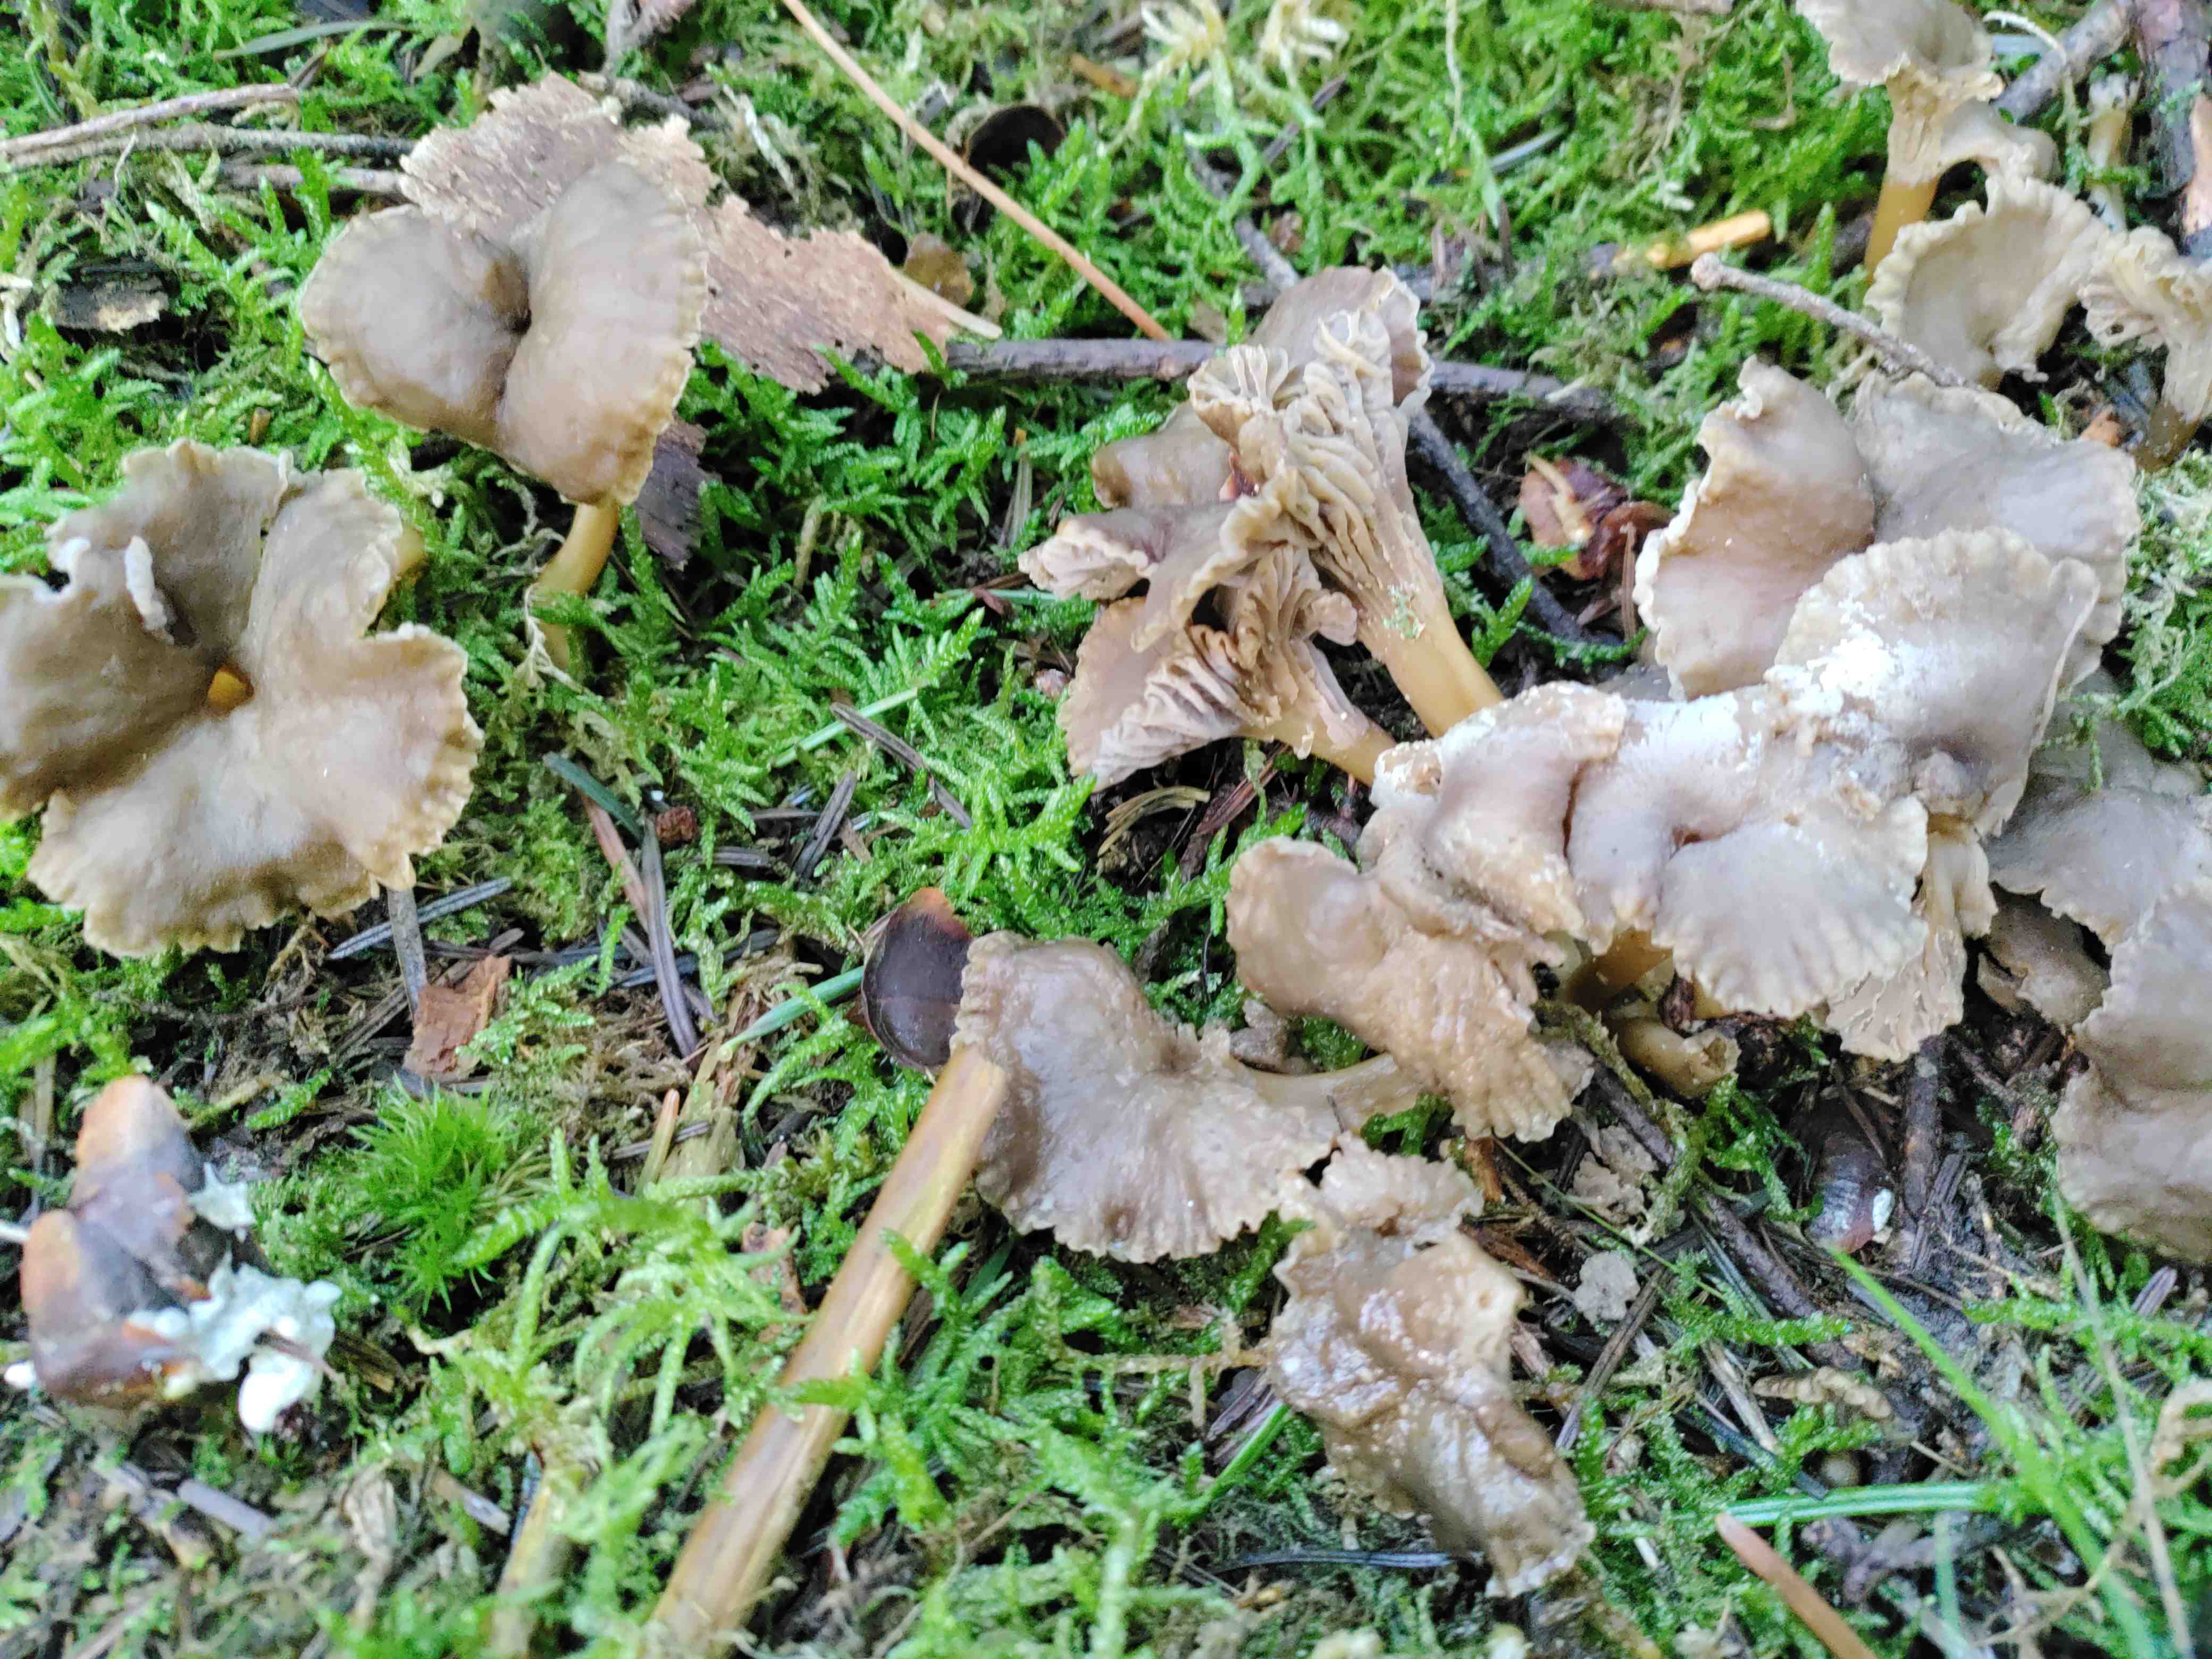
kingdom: Fungi
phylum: Basidiomycota
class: Agaricomycetes
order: Cantharellales
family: Hydnaceae
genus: Craterellus
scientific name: Craterellus tubaeformis
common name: tragt-kantarel
